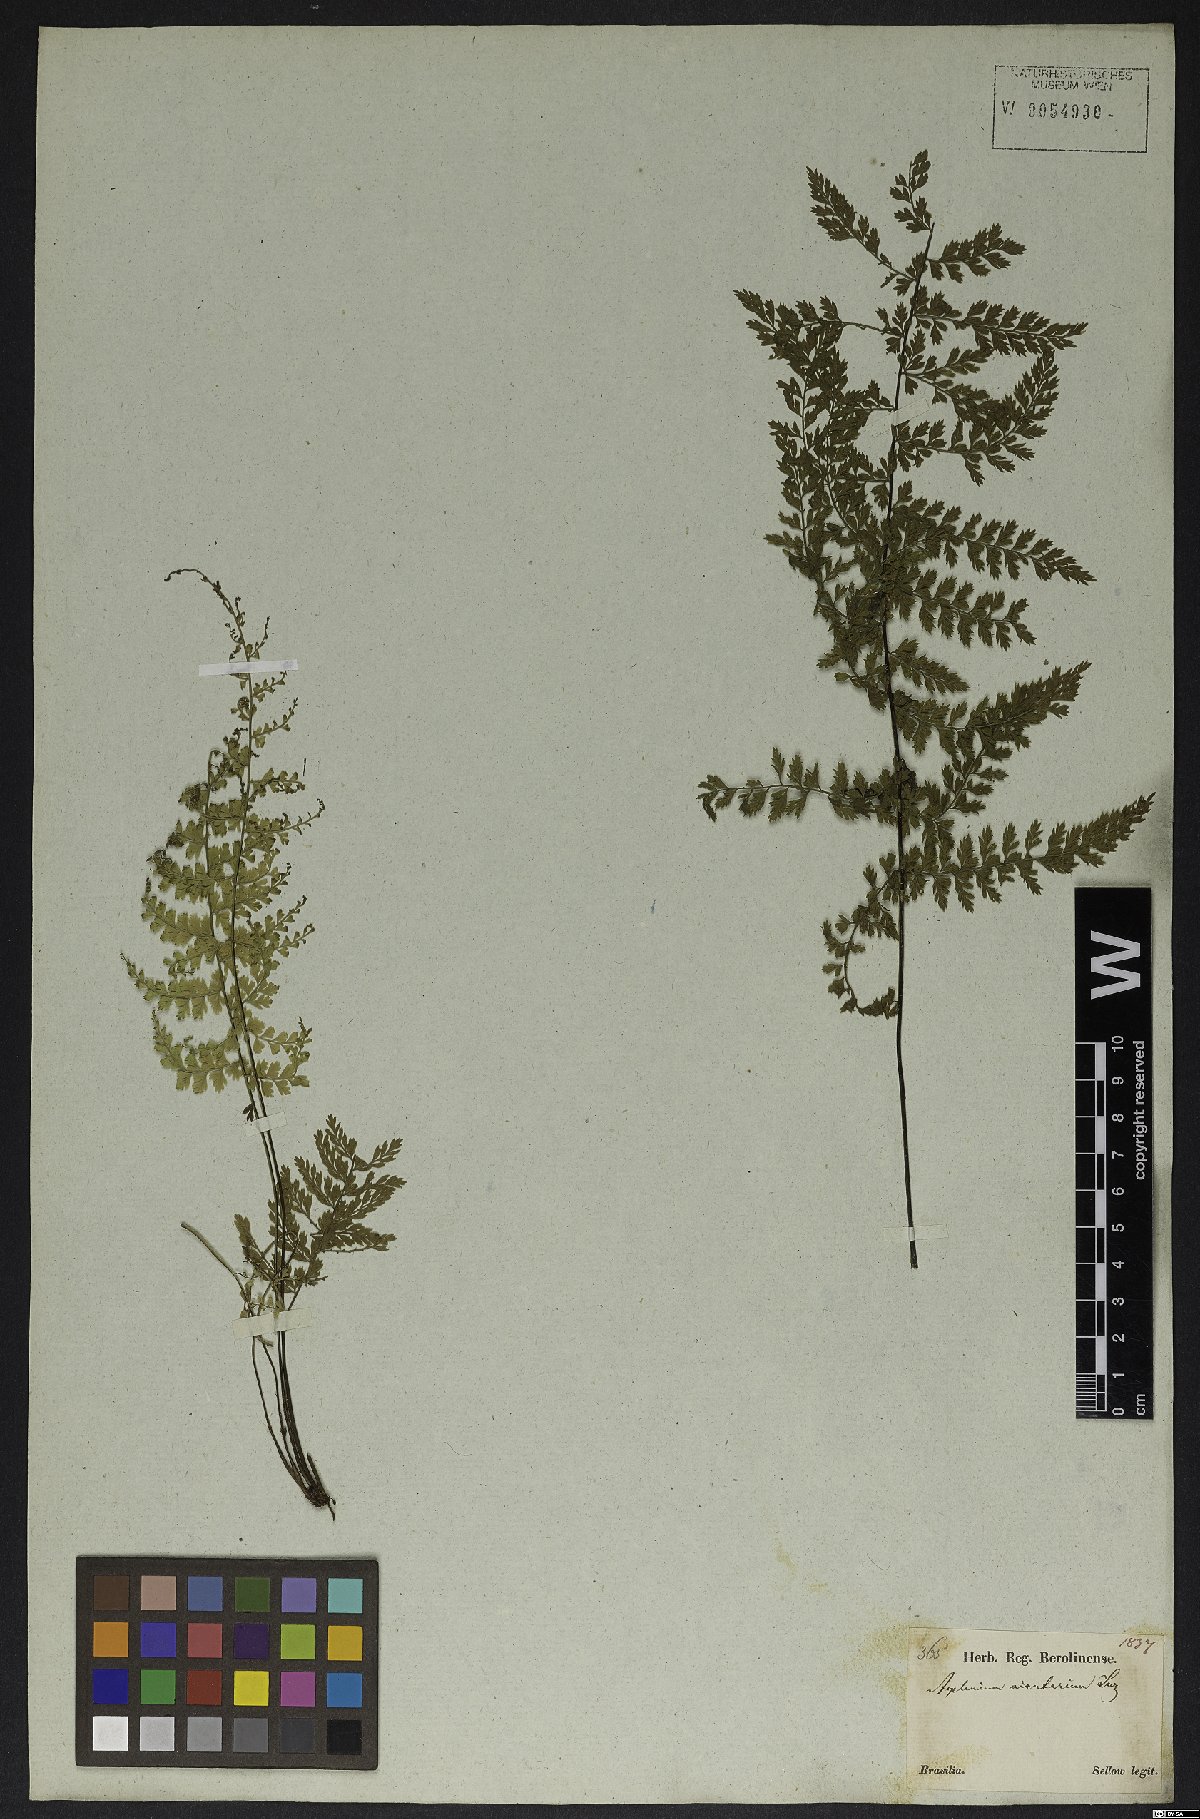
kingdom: Plantae
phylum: Tracheophyta
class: Polypodiopsida
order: Polypodiales
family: Aspleniaceae
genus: Asplenium
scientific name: Asplenium cristatum
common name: Parsley spleenwort
